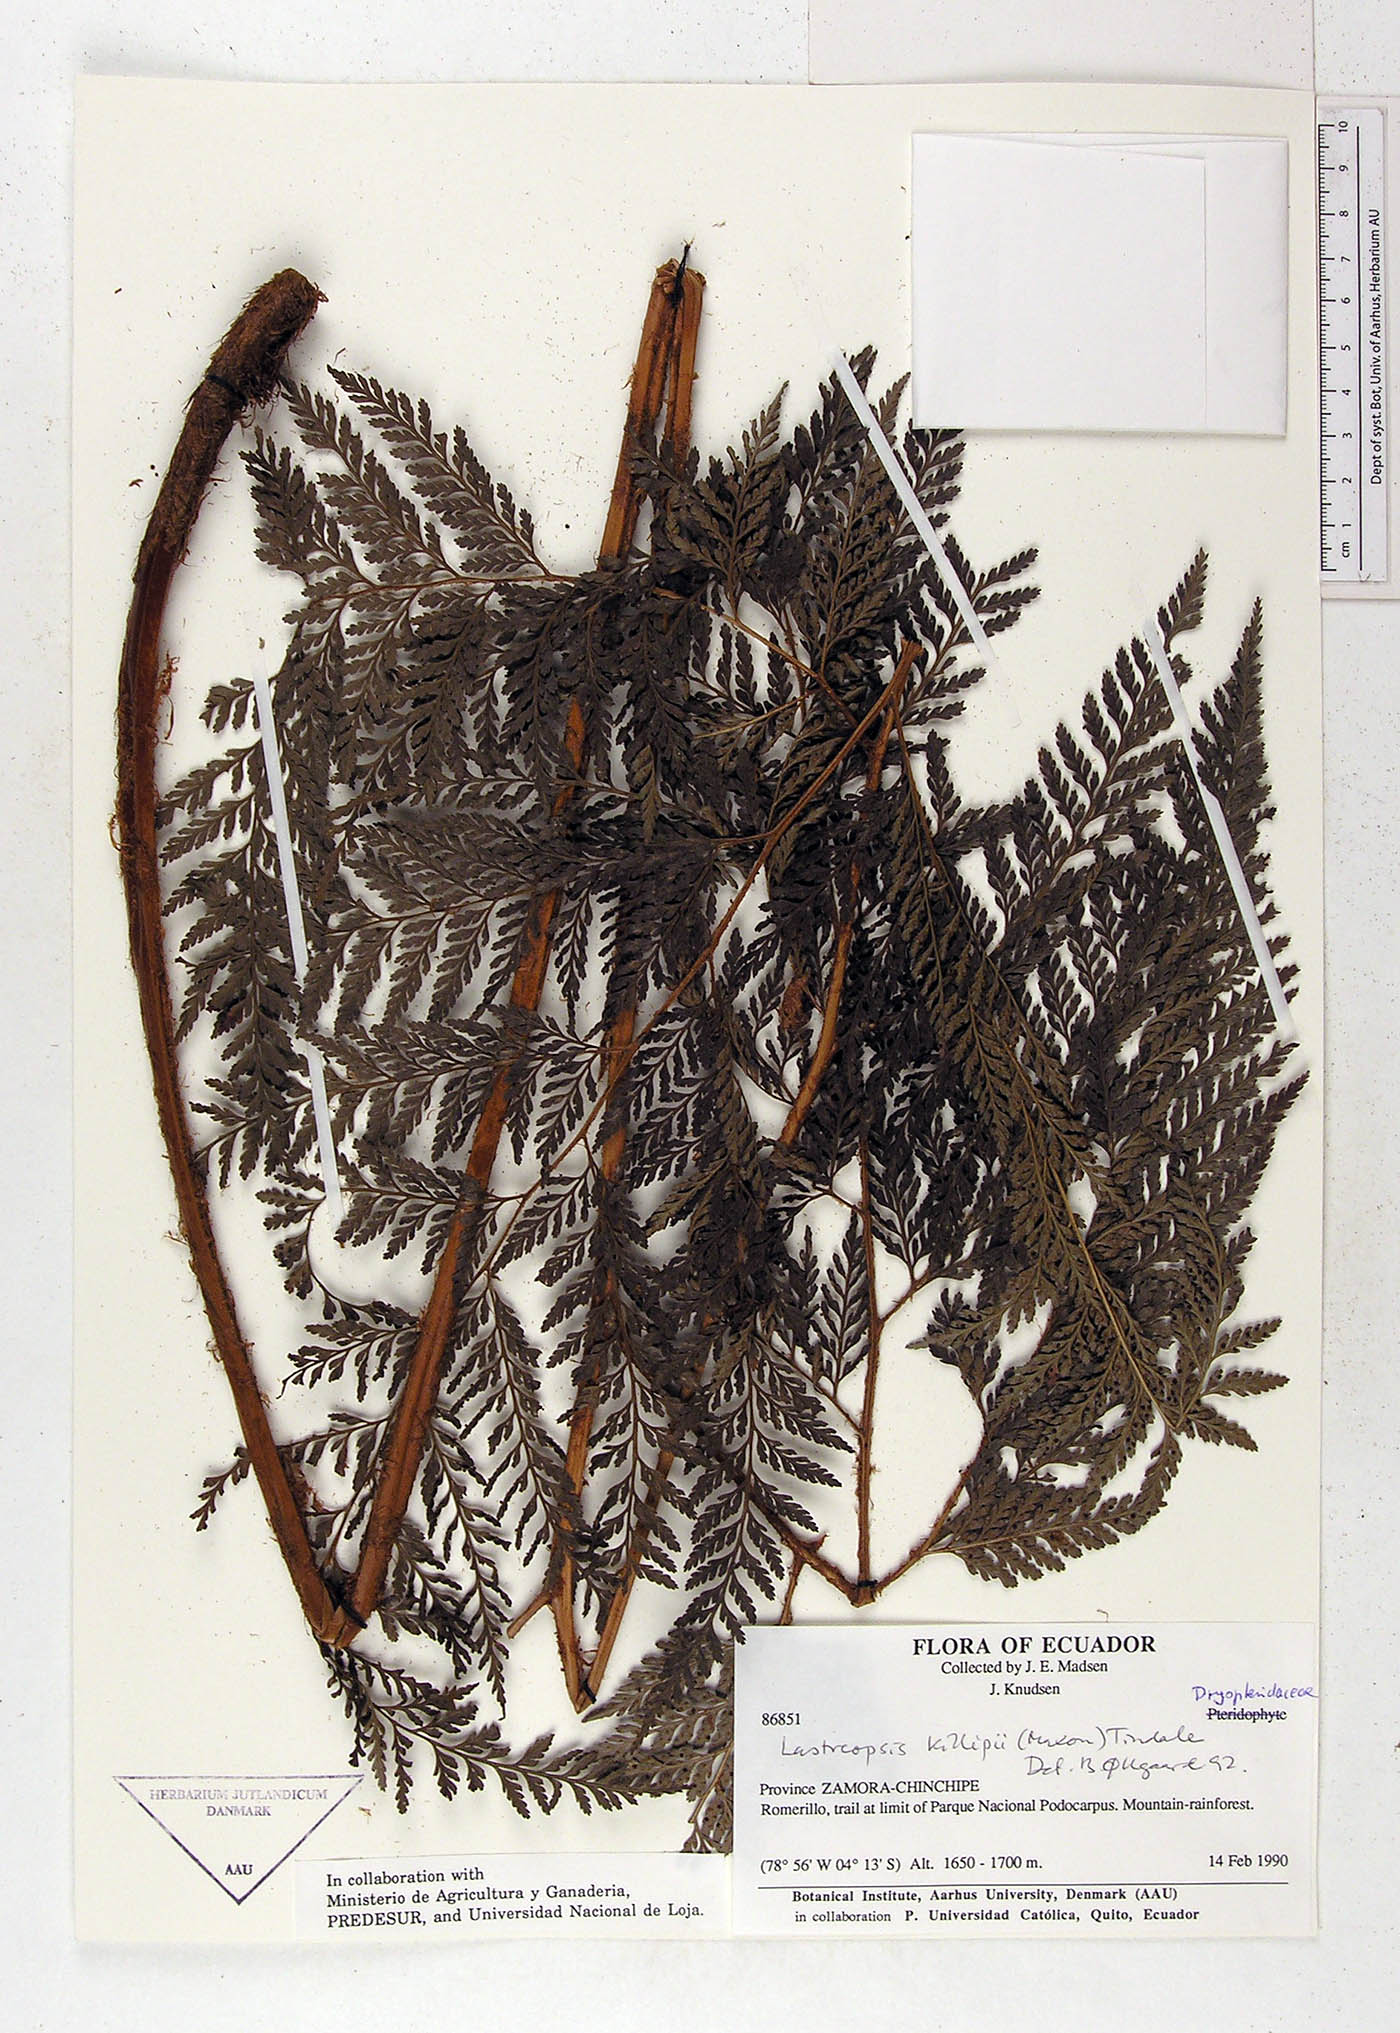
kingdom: Plantae
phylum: Tracheophyta
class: Polypodiopsida
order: Polypodiales
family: Dryopteridaceae
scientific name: Dryopteridaceae
